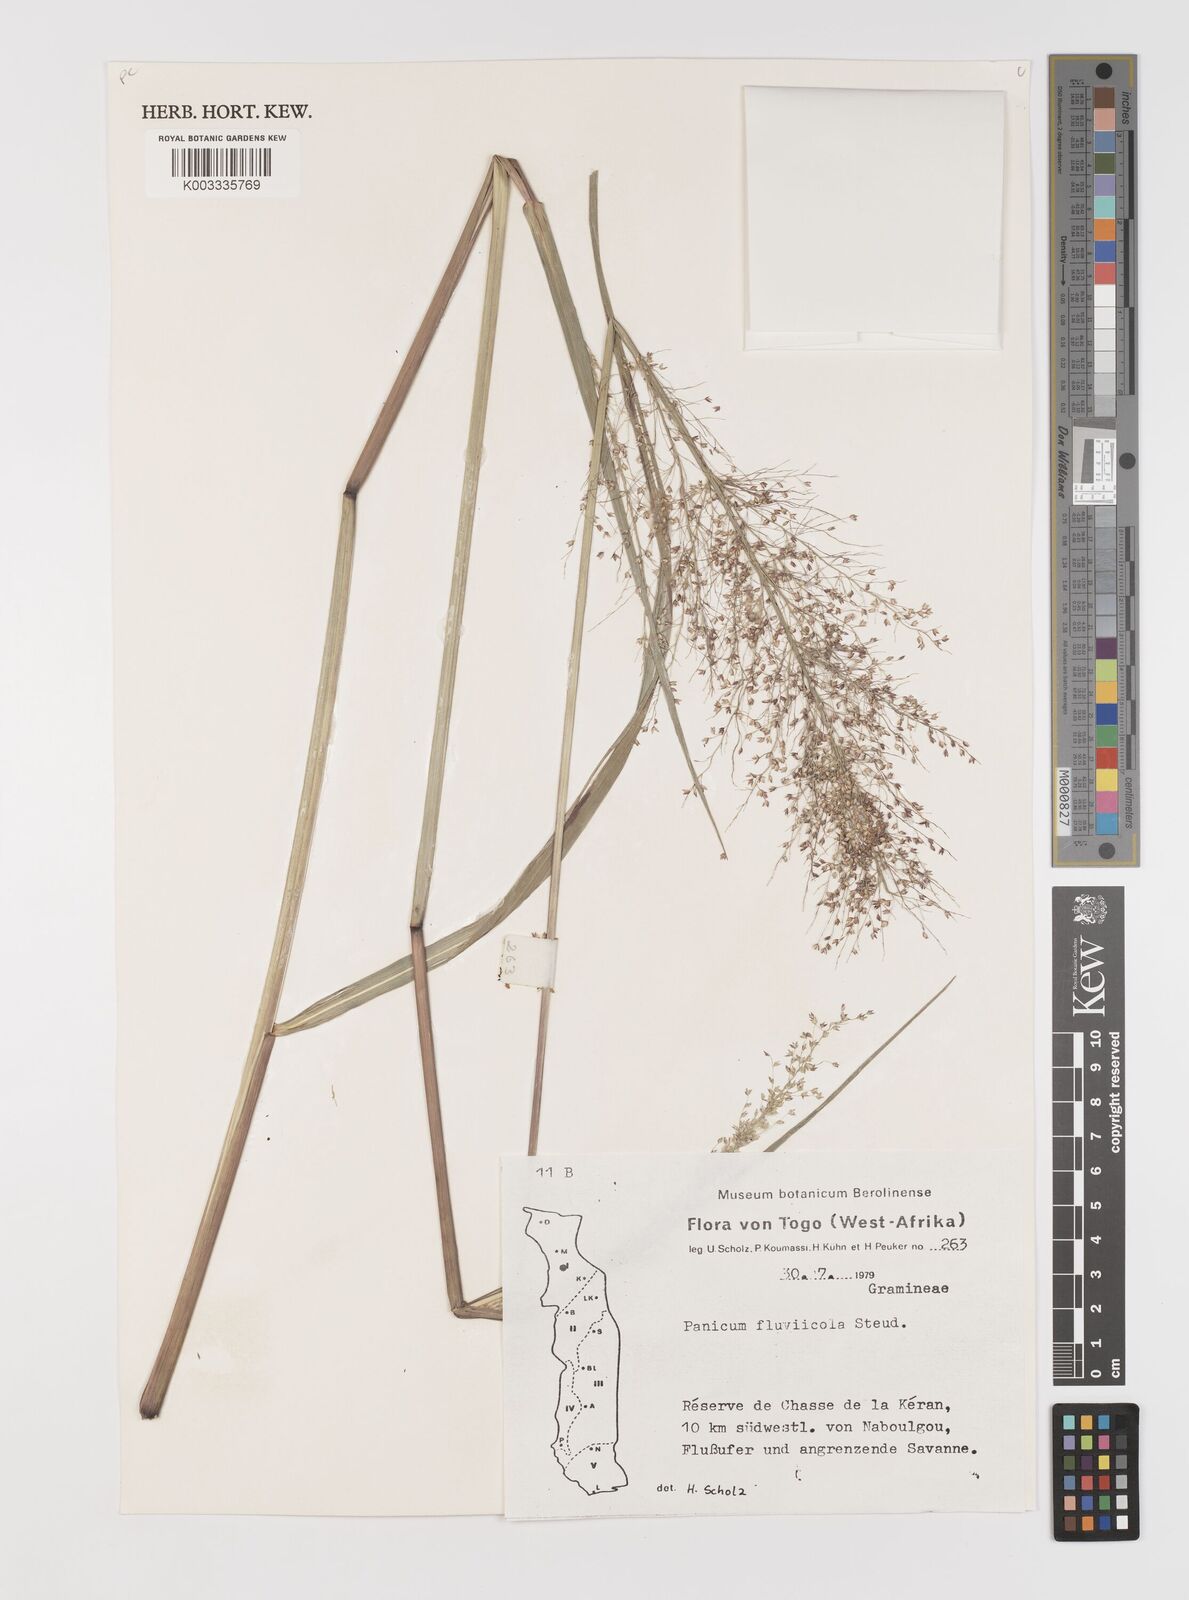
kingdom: Plantae
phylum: Tracheophyta
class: Liliopsida
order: Poales
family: Poaceae
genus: Panicum
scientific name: Panicum fluviicola
